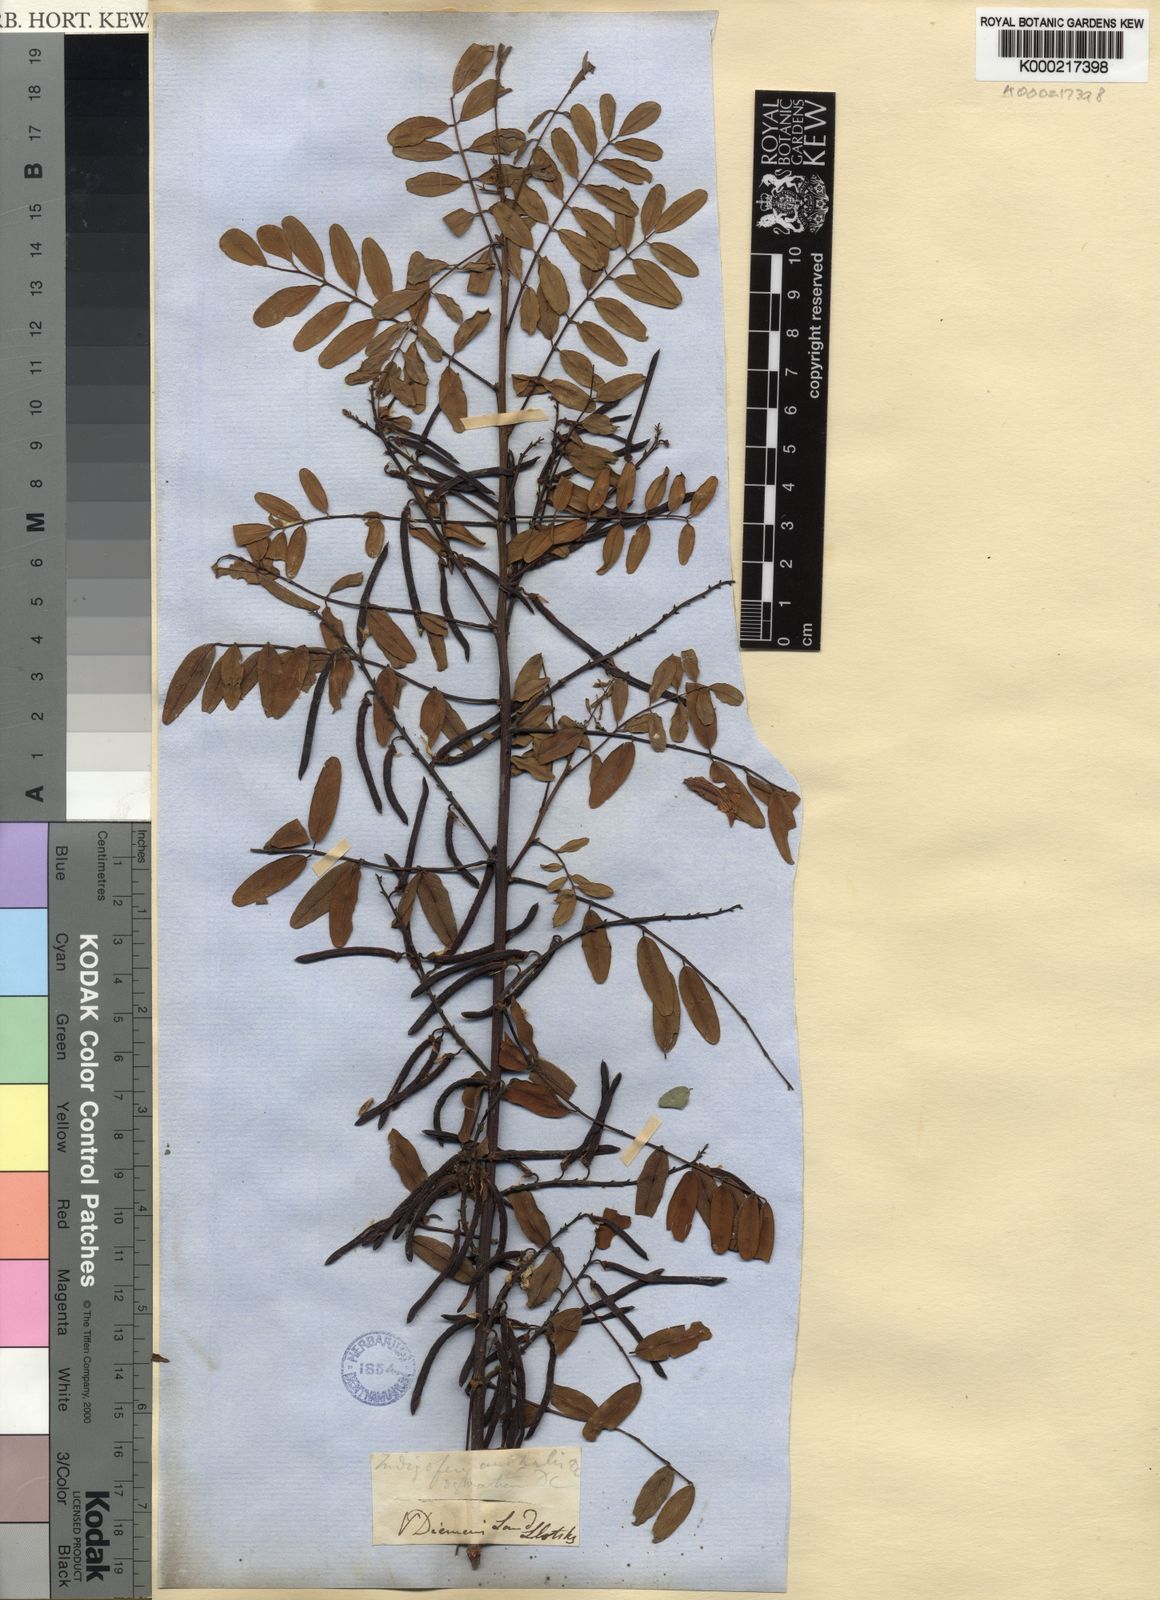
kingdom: Plantae
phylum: Tracheophyta
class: Magnoliopsida
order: Fabales
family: Fabaceae
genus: Indigofera
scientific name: Indigofera australis
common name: Australian indigo
